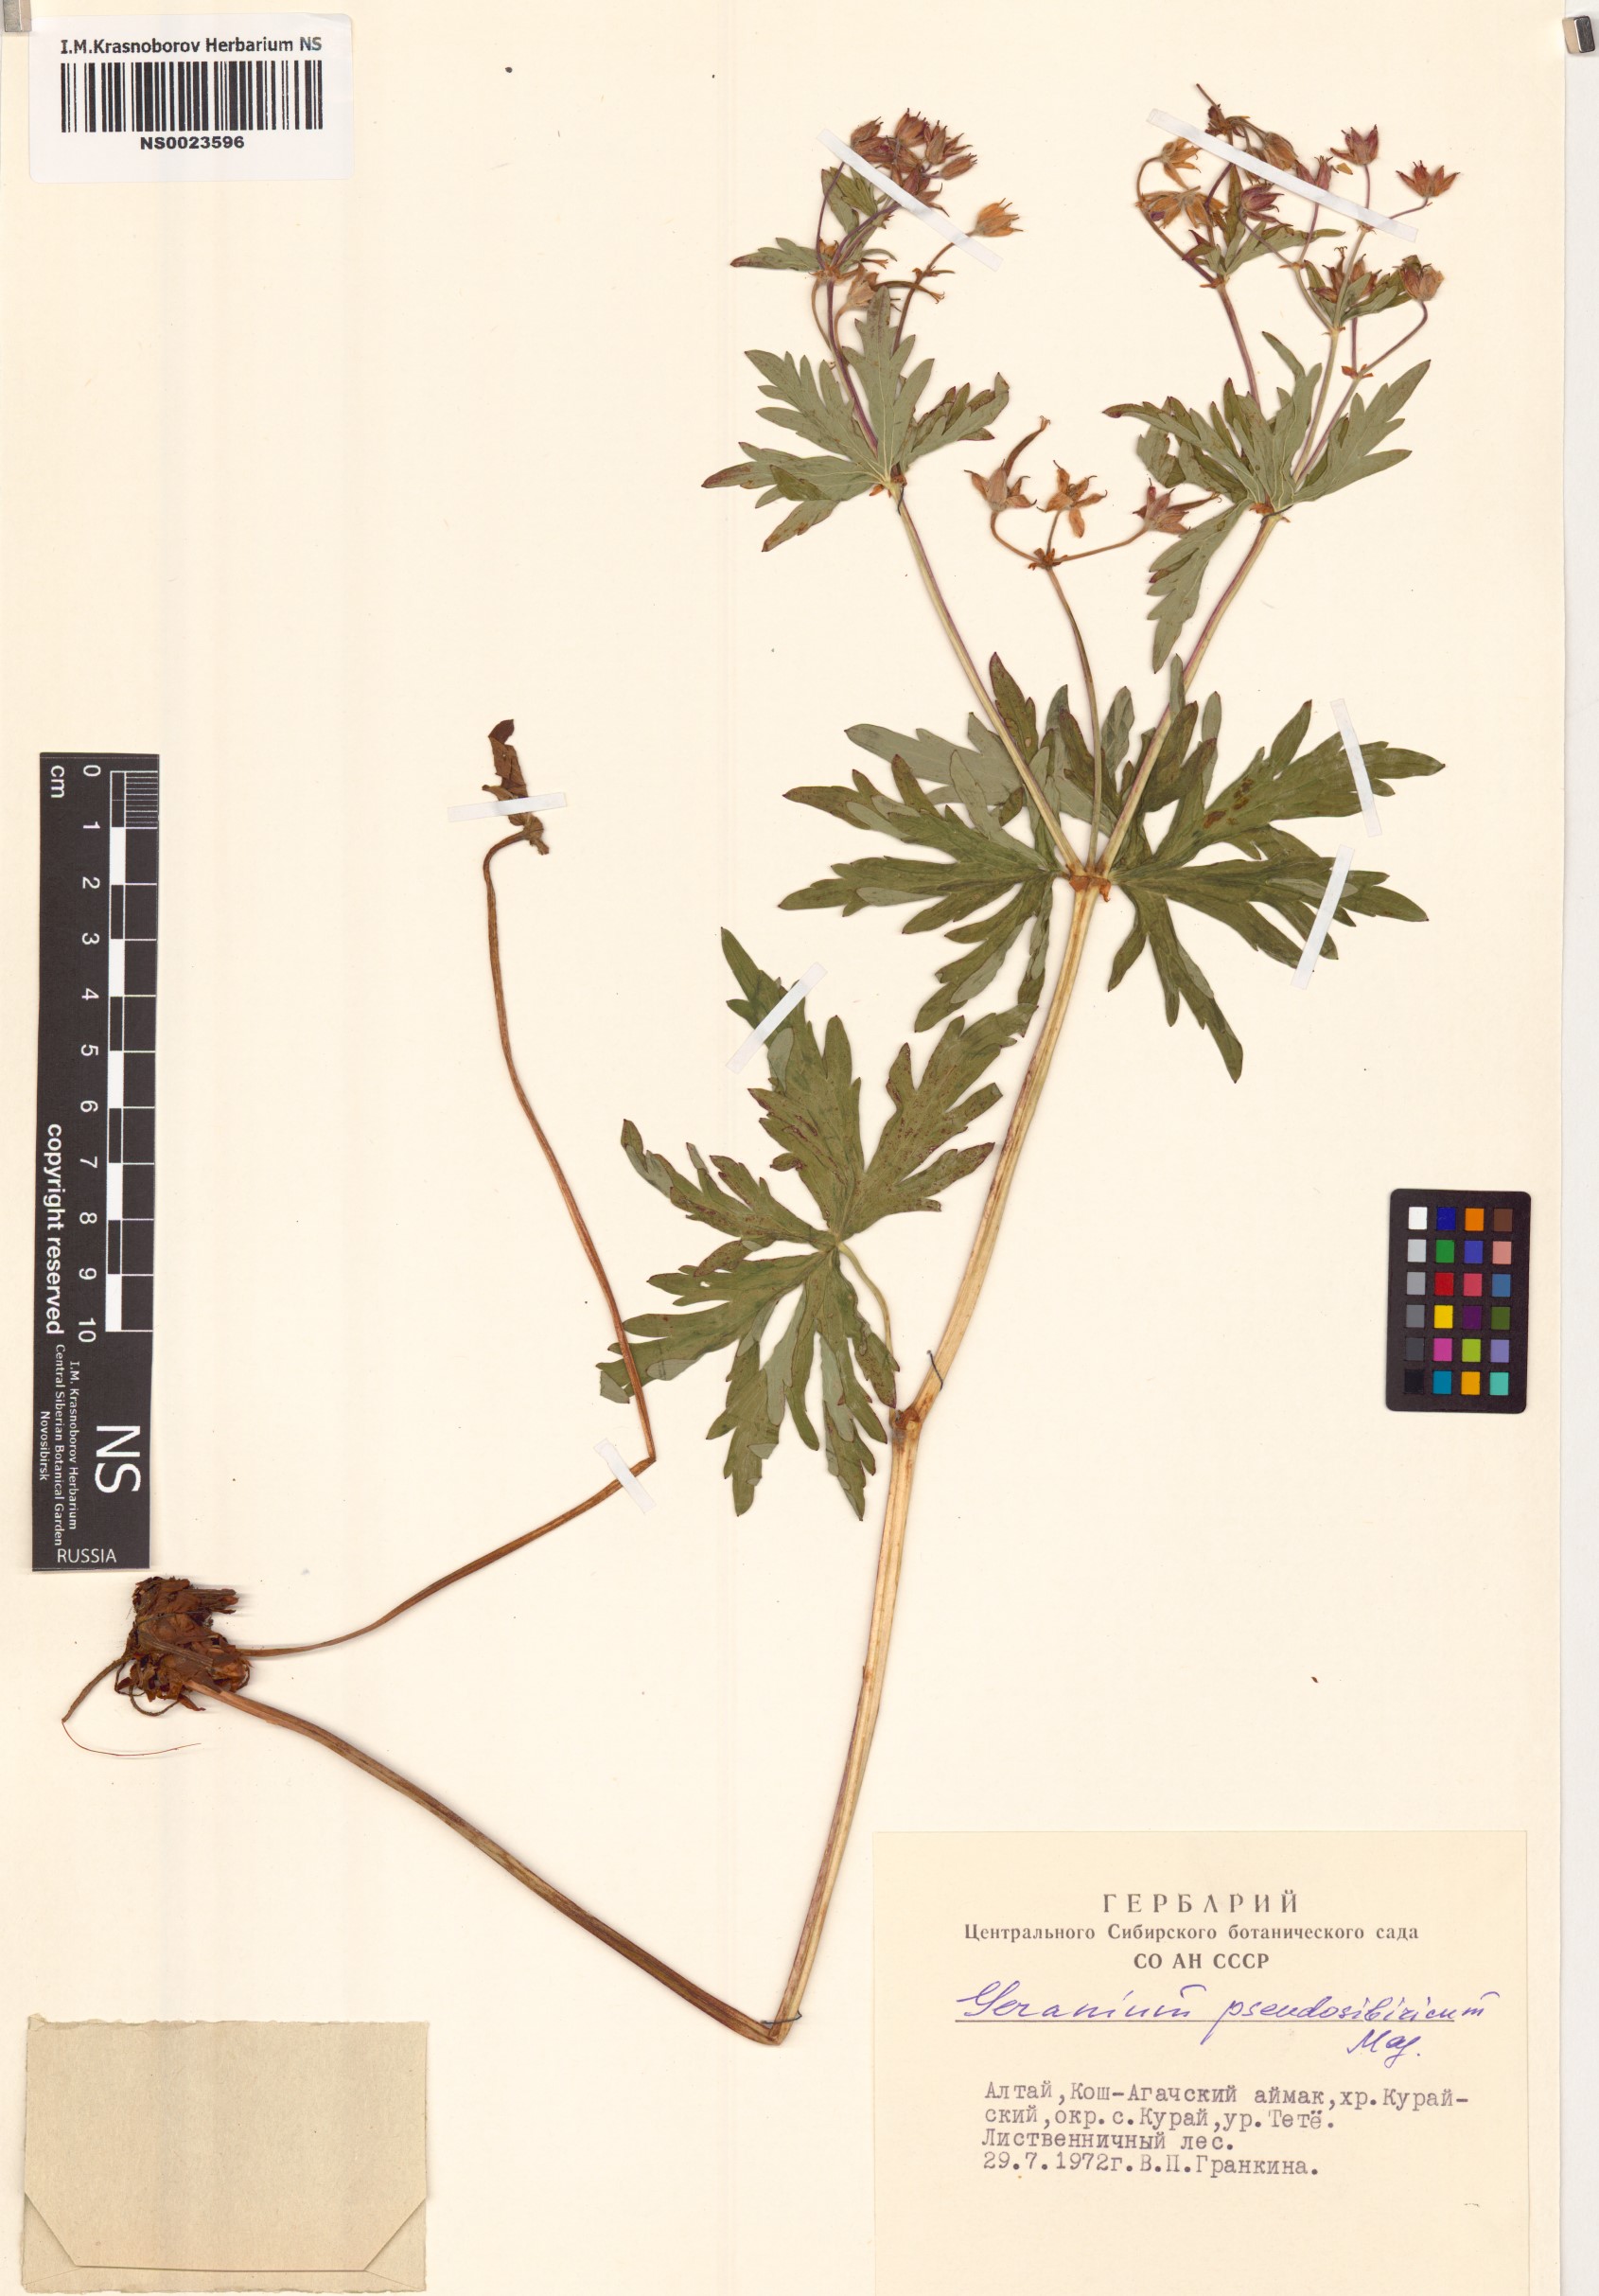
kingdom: Plantae
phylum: Tracheophyta
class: Magnoliopsida
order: Geraniales
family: Geraniaceae
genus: Geranium
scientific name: Geranium pseudosibiricum
